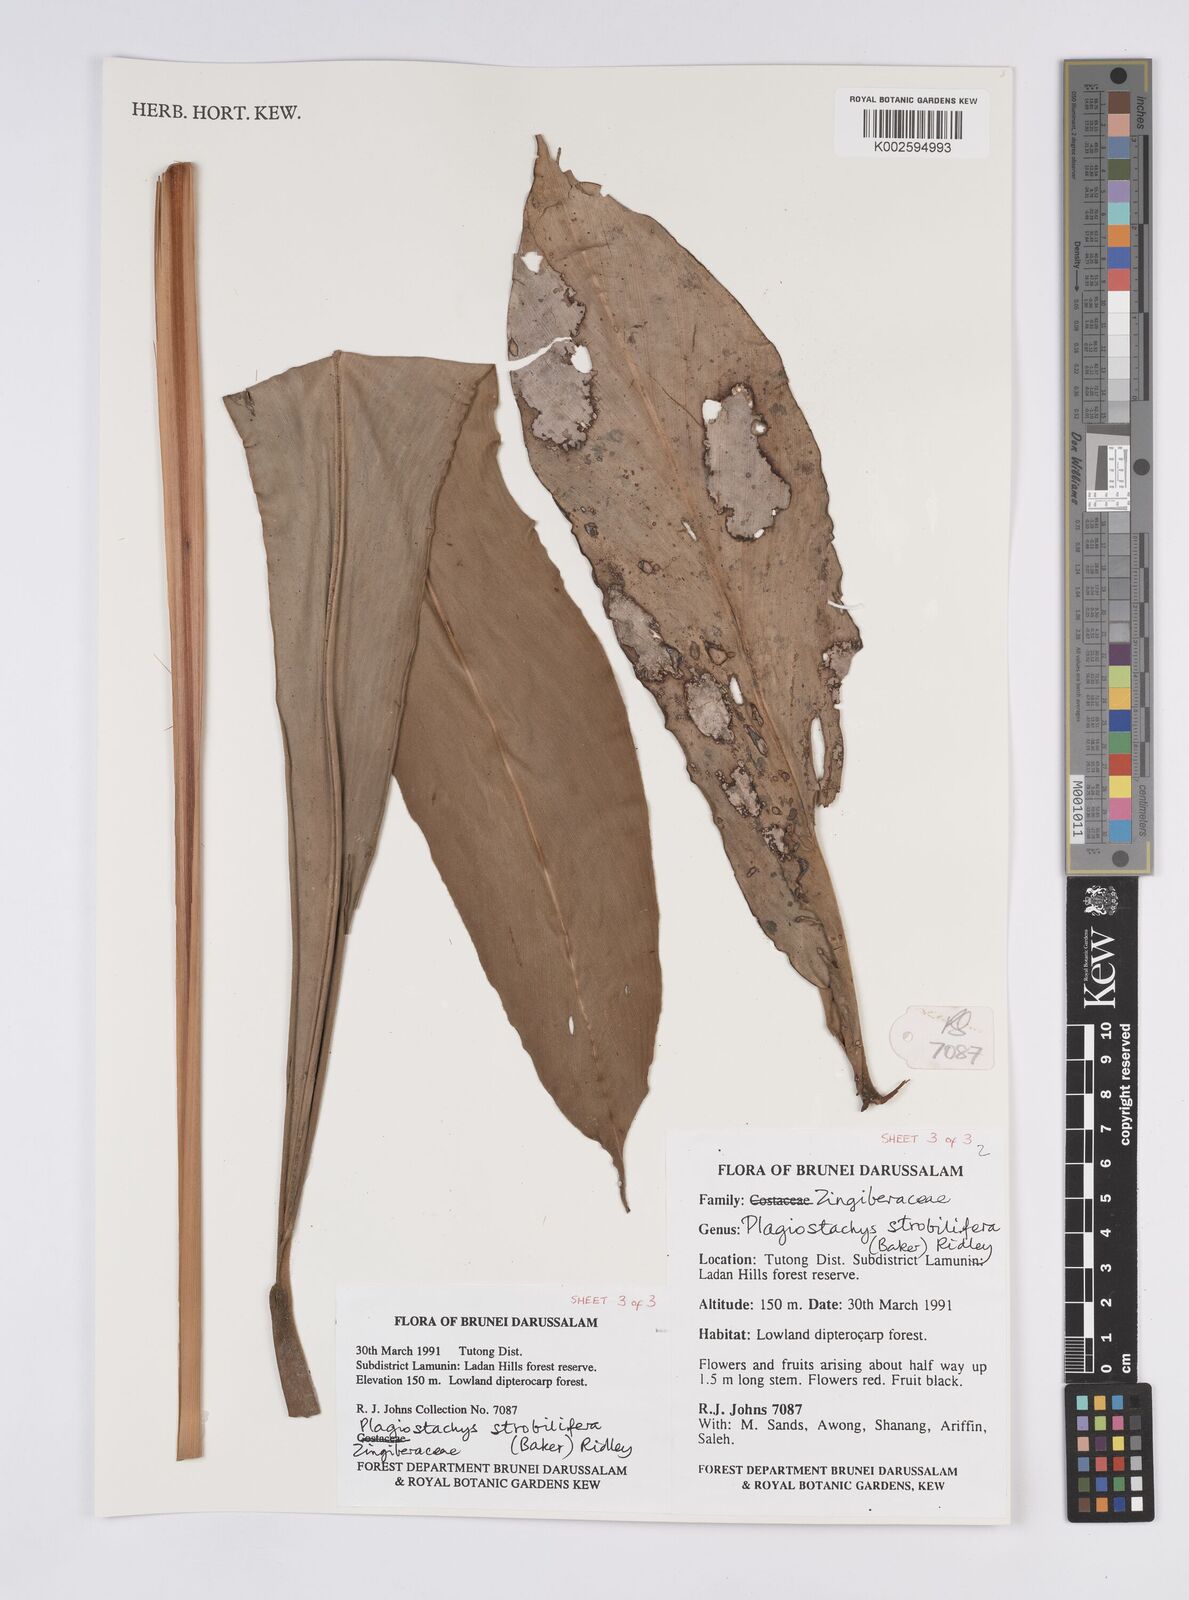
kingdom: Plantae
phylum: Tracheophyta
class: Liliopsida
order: Zingiberales
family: Zingiberaceae
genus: Plagiostachys
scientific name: Plagiostachys strobilifera
